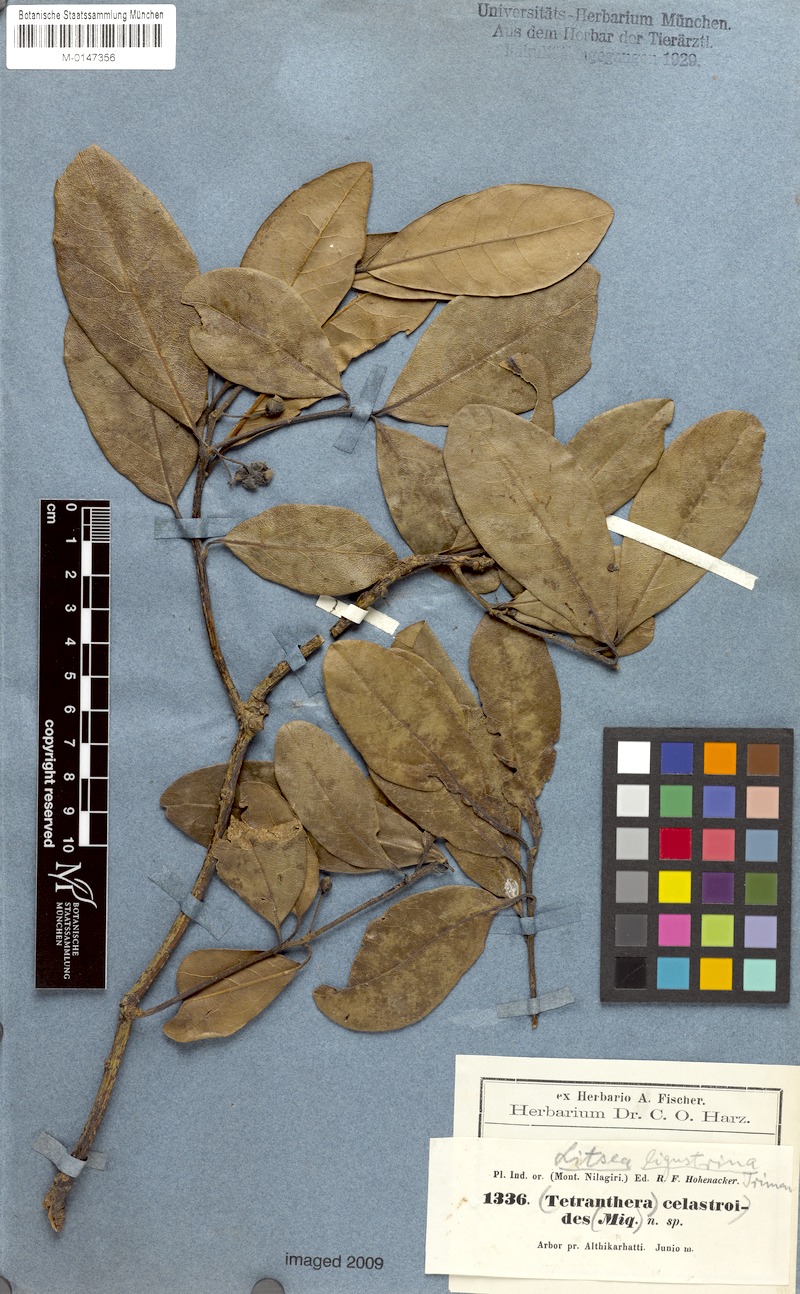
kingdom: Plantae
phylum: Tracheophyta
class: Magnoliopsida
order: Laurales
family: Lauraceae
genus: Litsea
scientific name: Litsea
